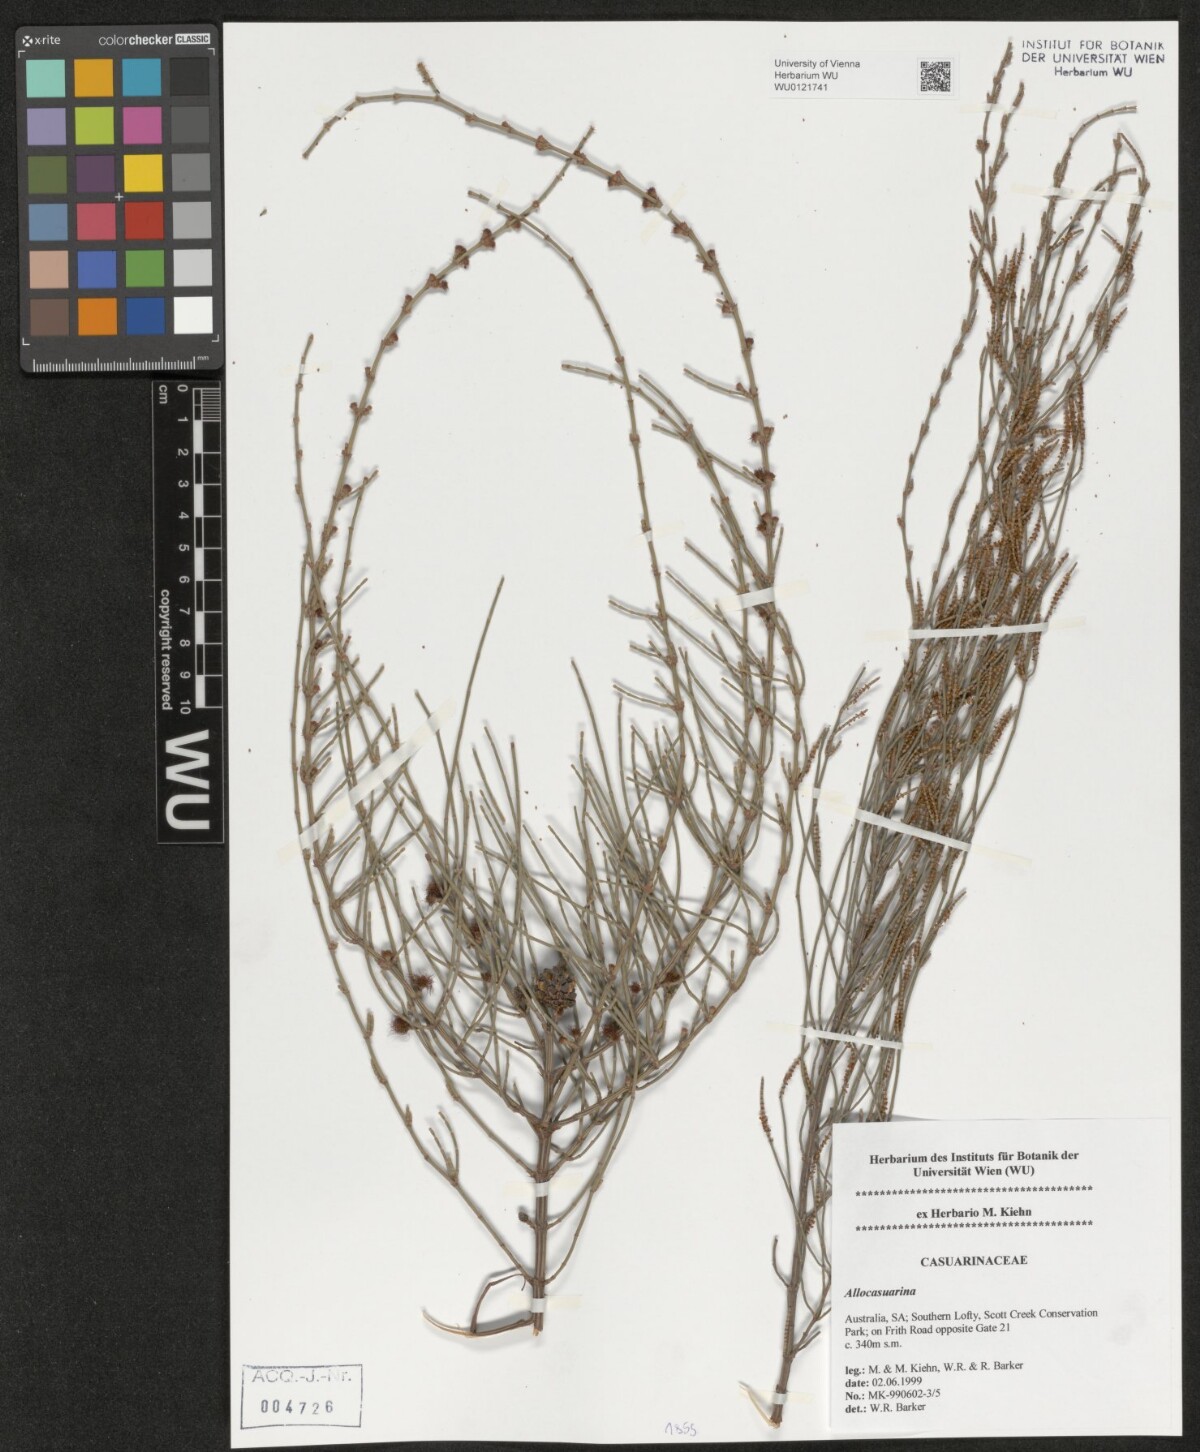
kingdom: Plantae
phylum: Tracheophyta
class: Magnoliopsida
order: Fagales
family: Casuarinaceae
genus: Casuarina
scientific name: Casuarina
